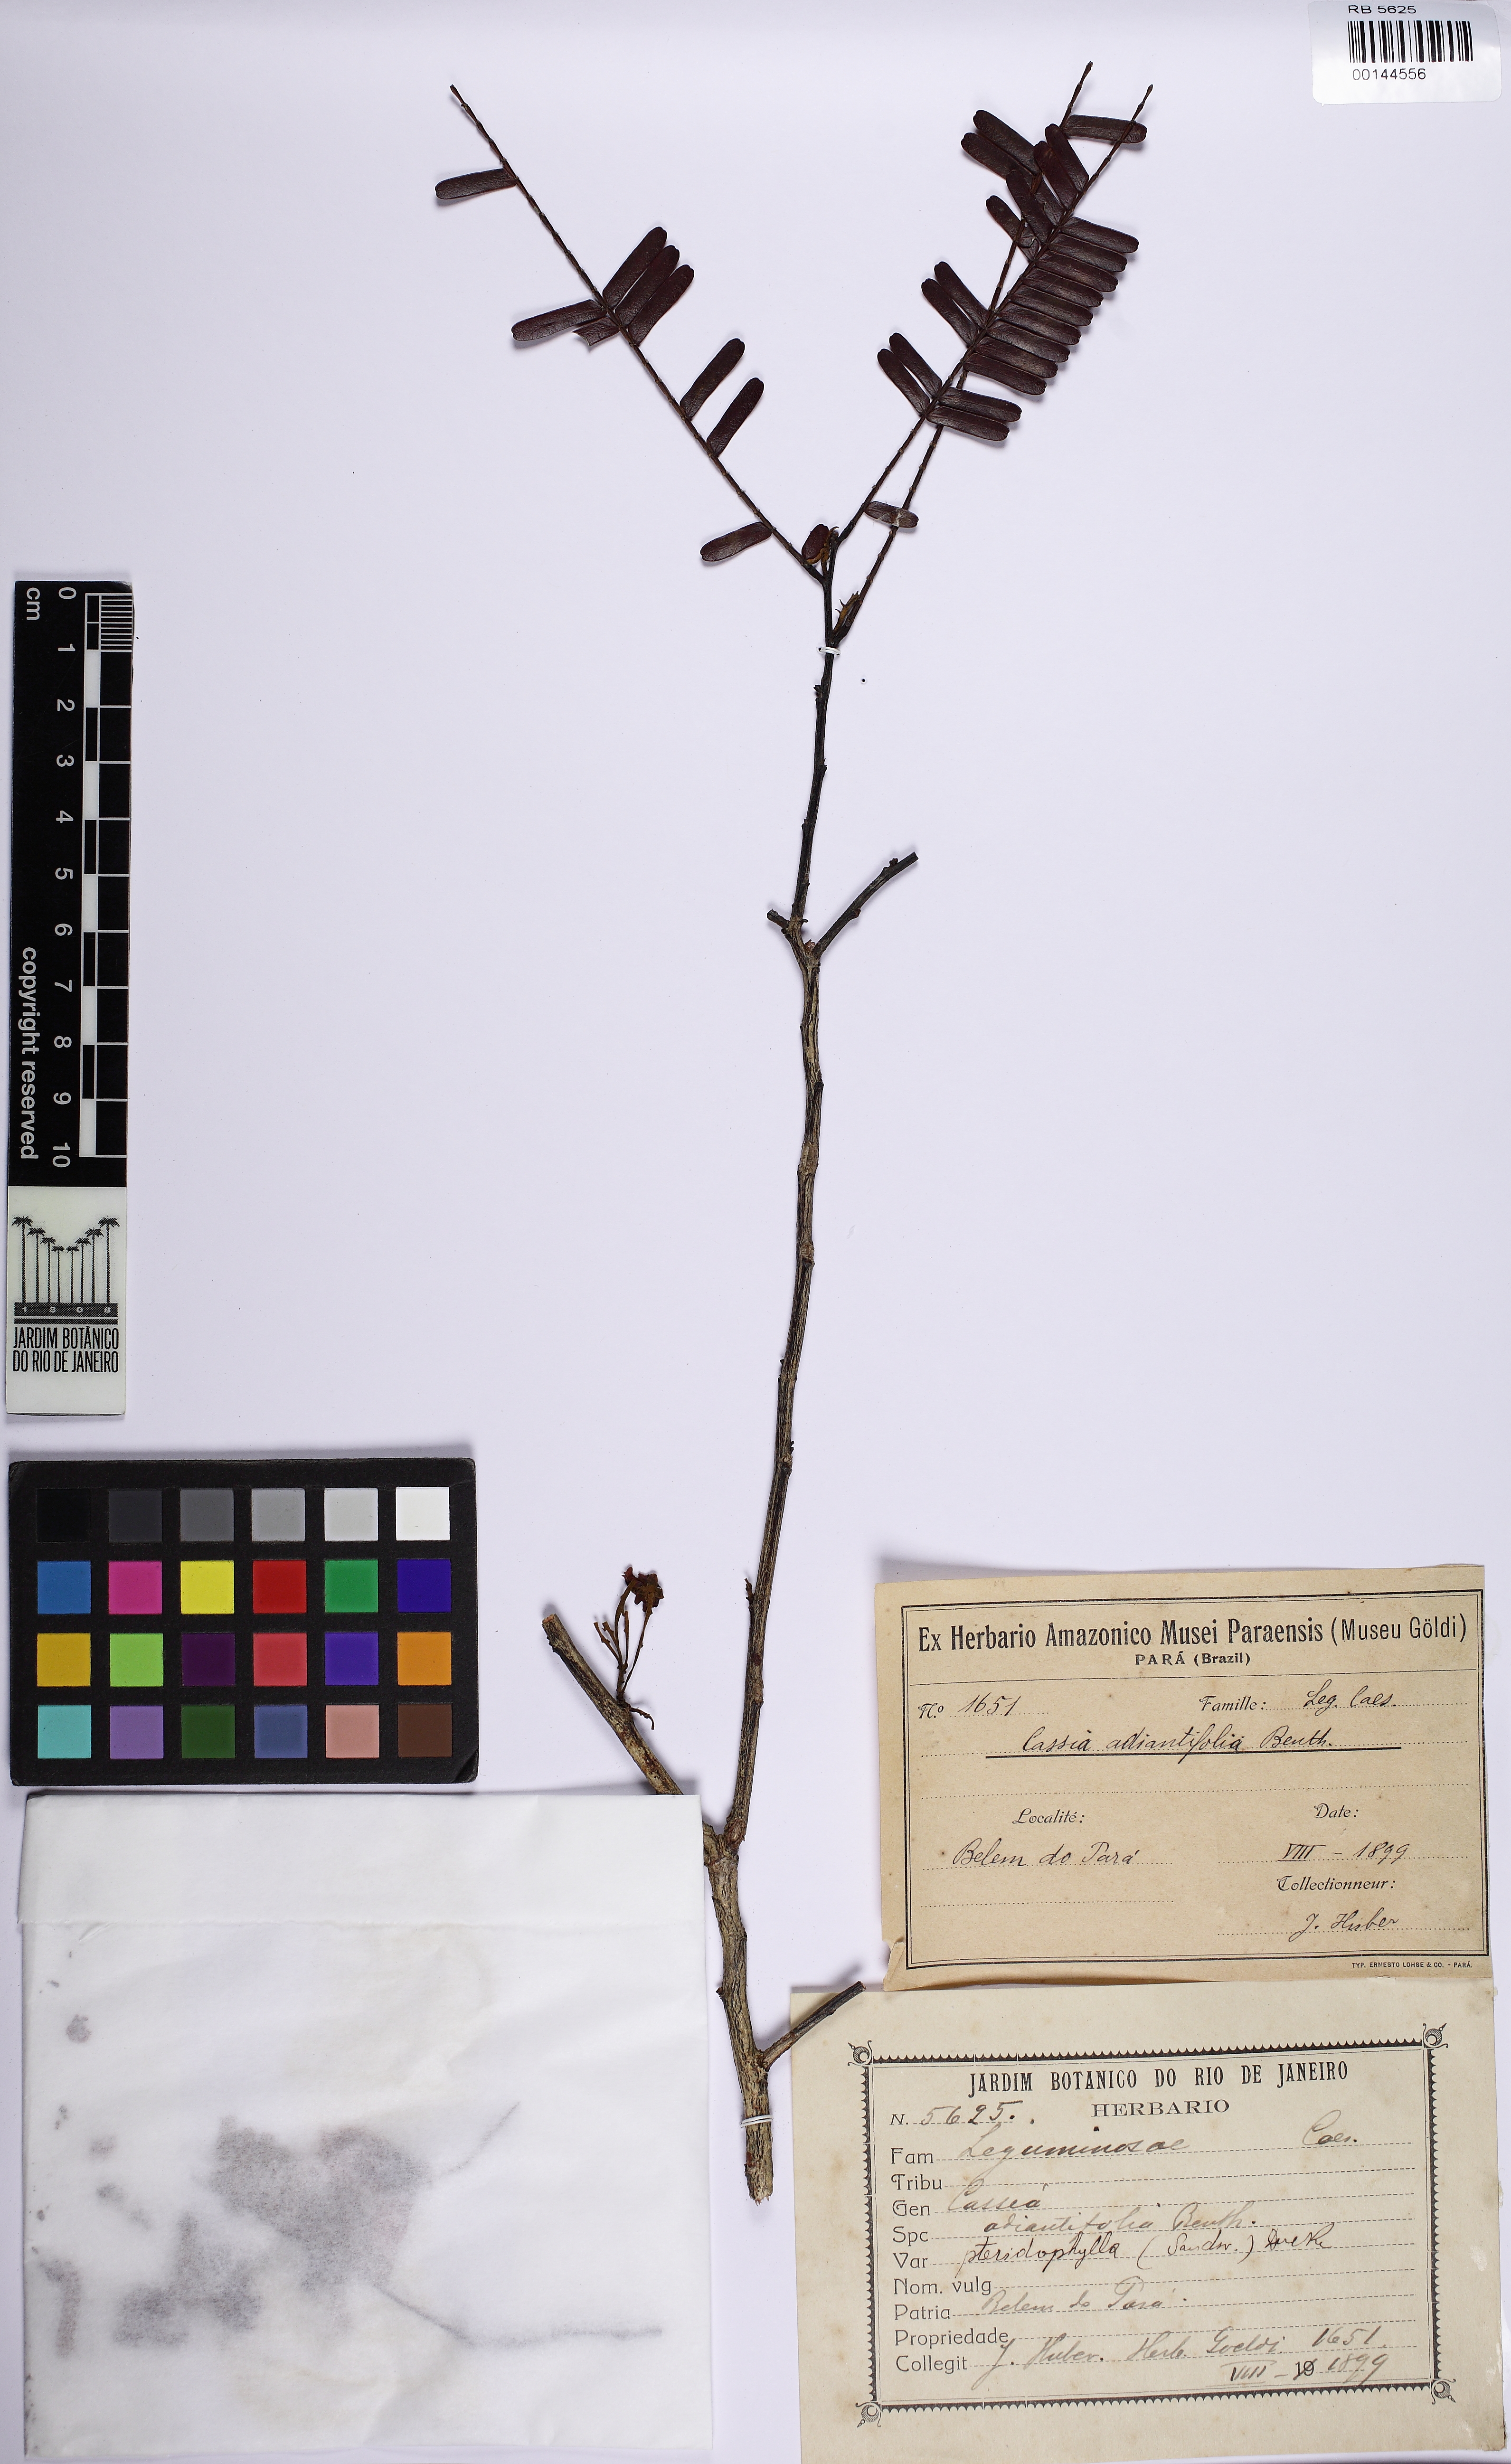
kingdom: Plantae
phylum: Tracheophyta
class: Magnoliopsida
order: Fabales
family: Fabaceae
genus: Chamaecrista
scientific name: Chamaecrista adiantifolia
